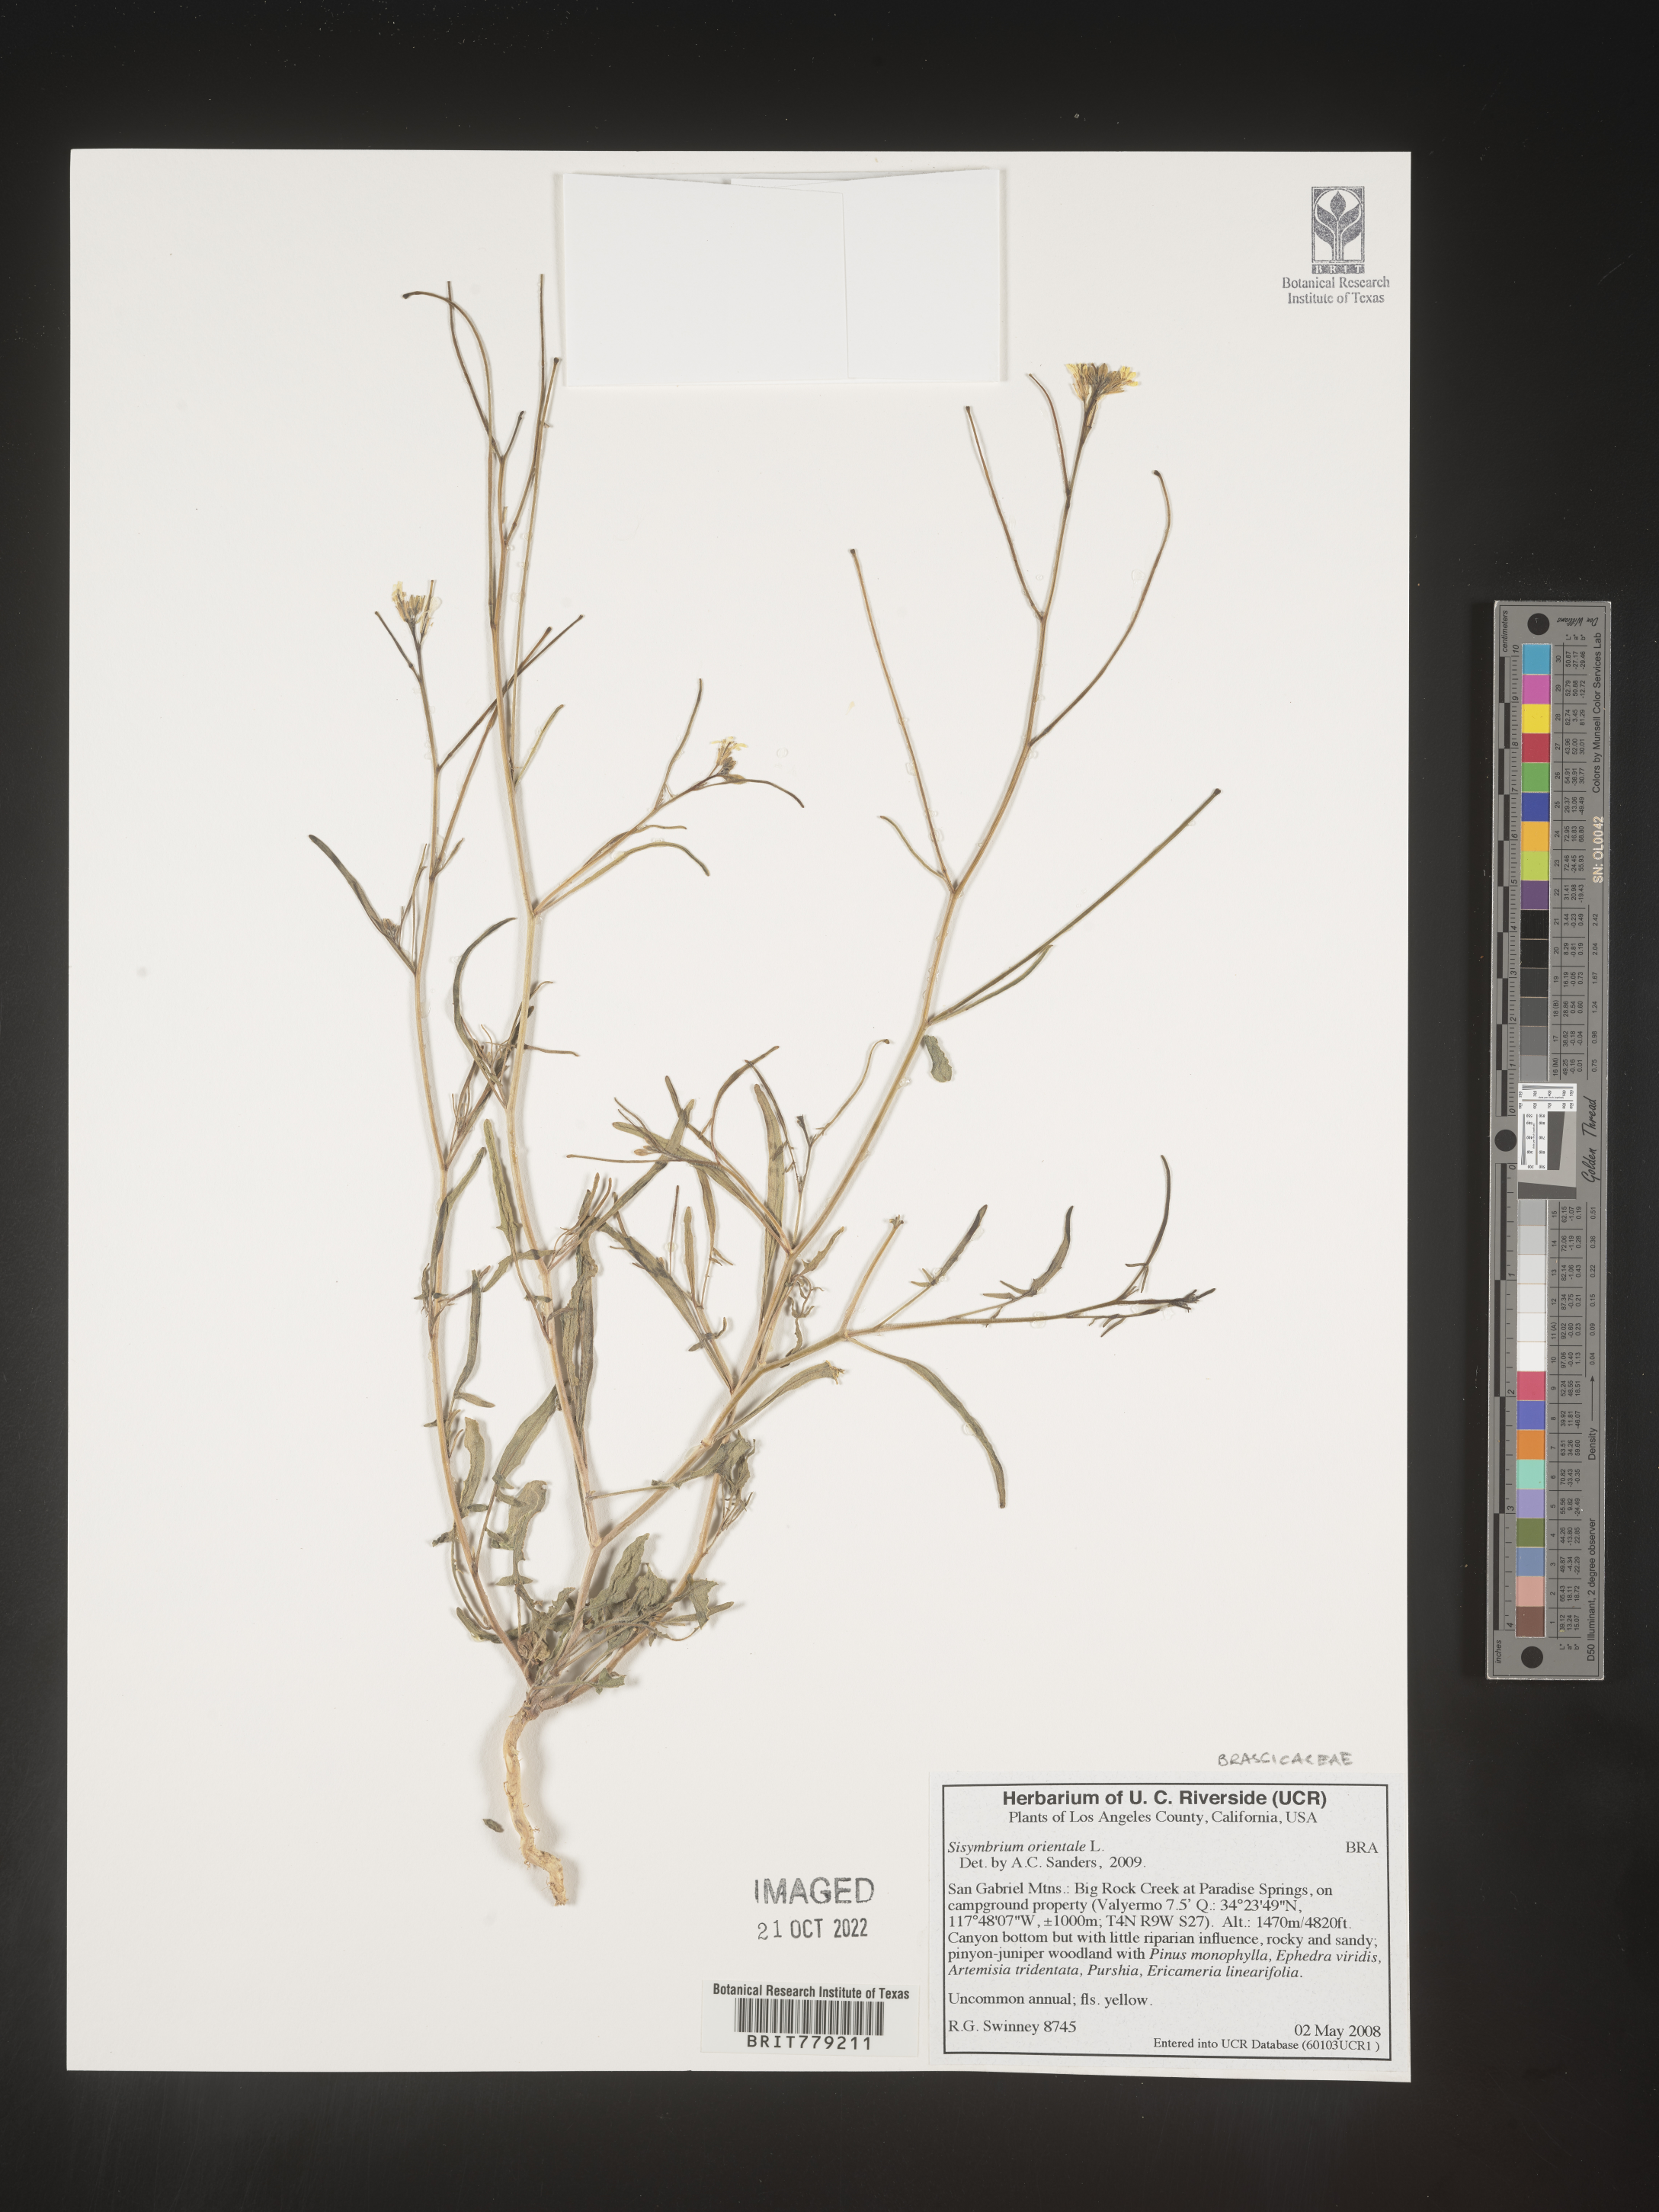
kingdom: Plantae
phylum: Tracheophyta
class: Magnoliopsida
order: Brassicales
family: Brassicaceae
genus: Sisymbrium
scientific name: Sisymbrium orientale
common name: Eastern rocket
